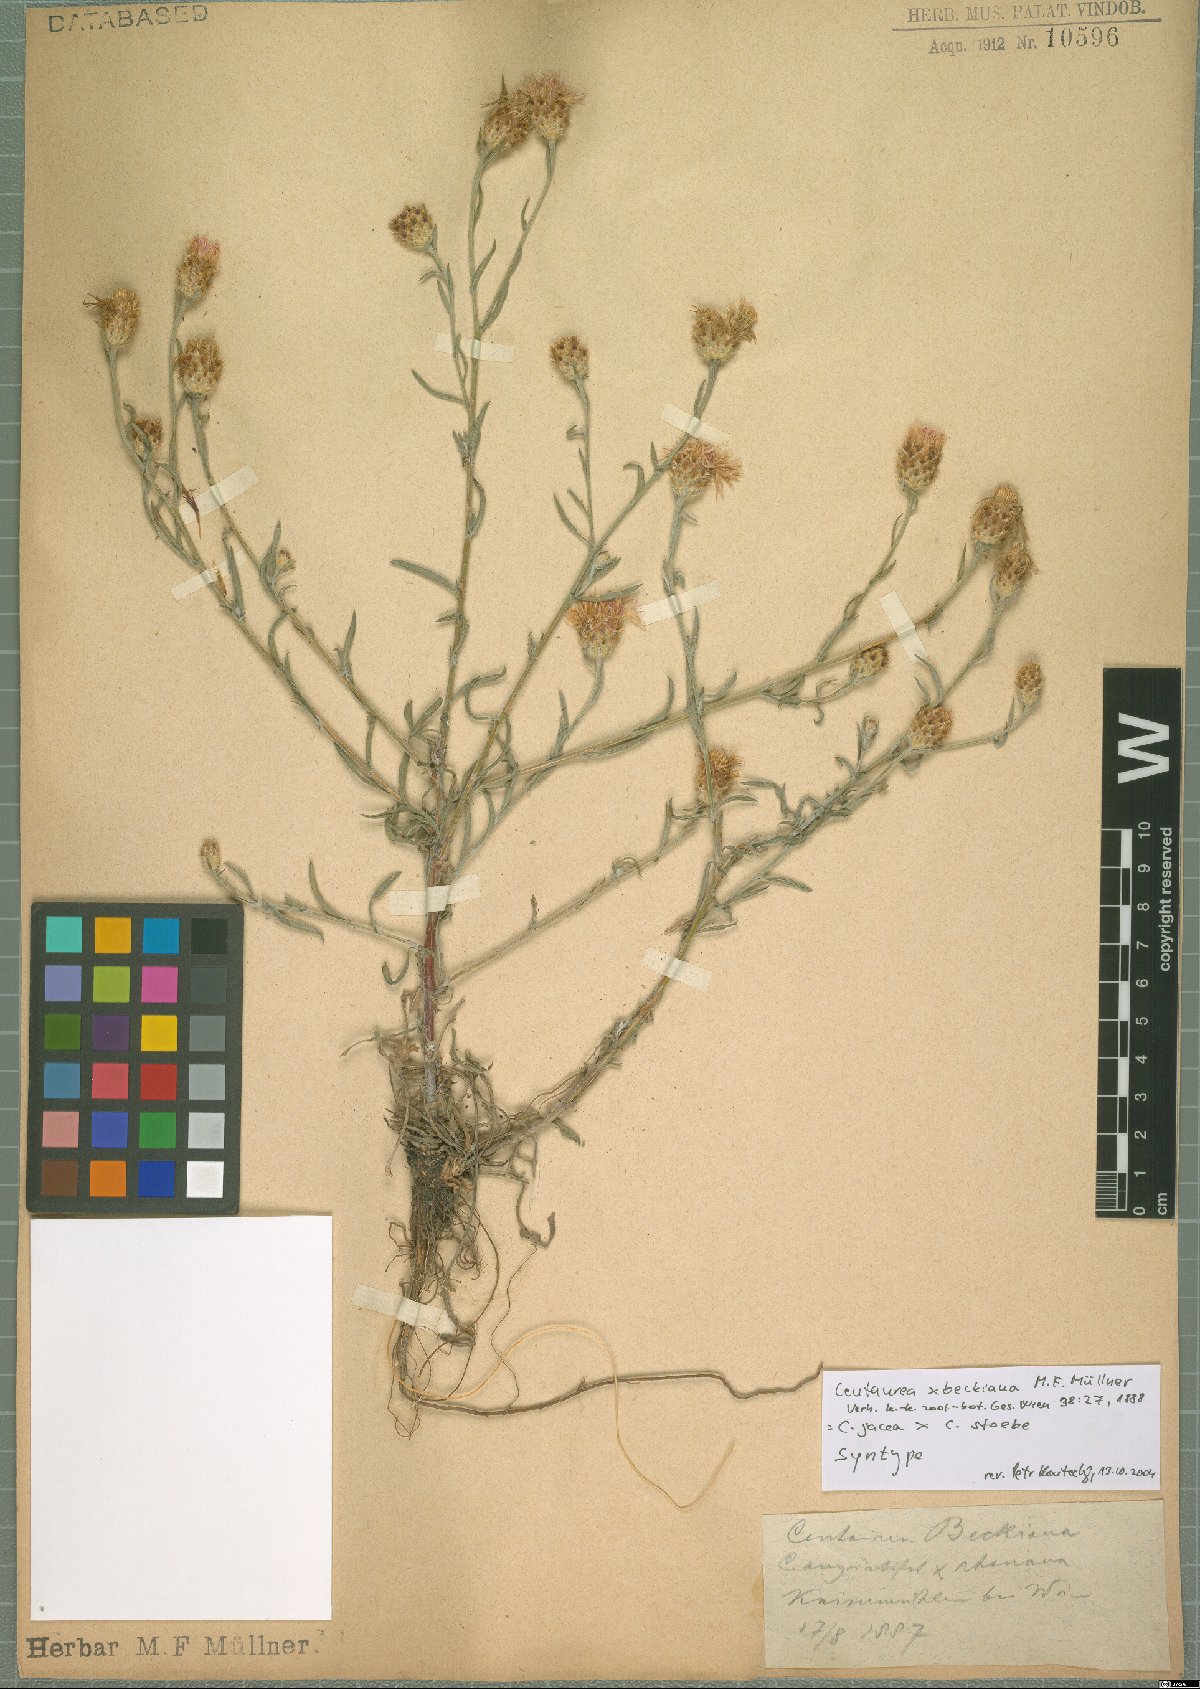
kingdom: Plantae
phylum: Tracheophyta
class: Magnoliopsida
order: Asterales
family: Asteraceae
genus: Centaurea
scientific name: Centaurea beckiana
